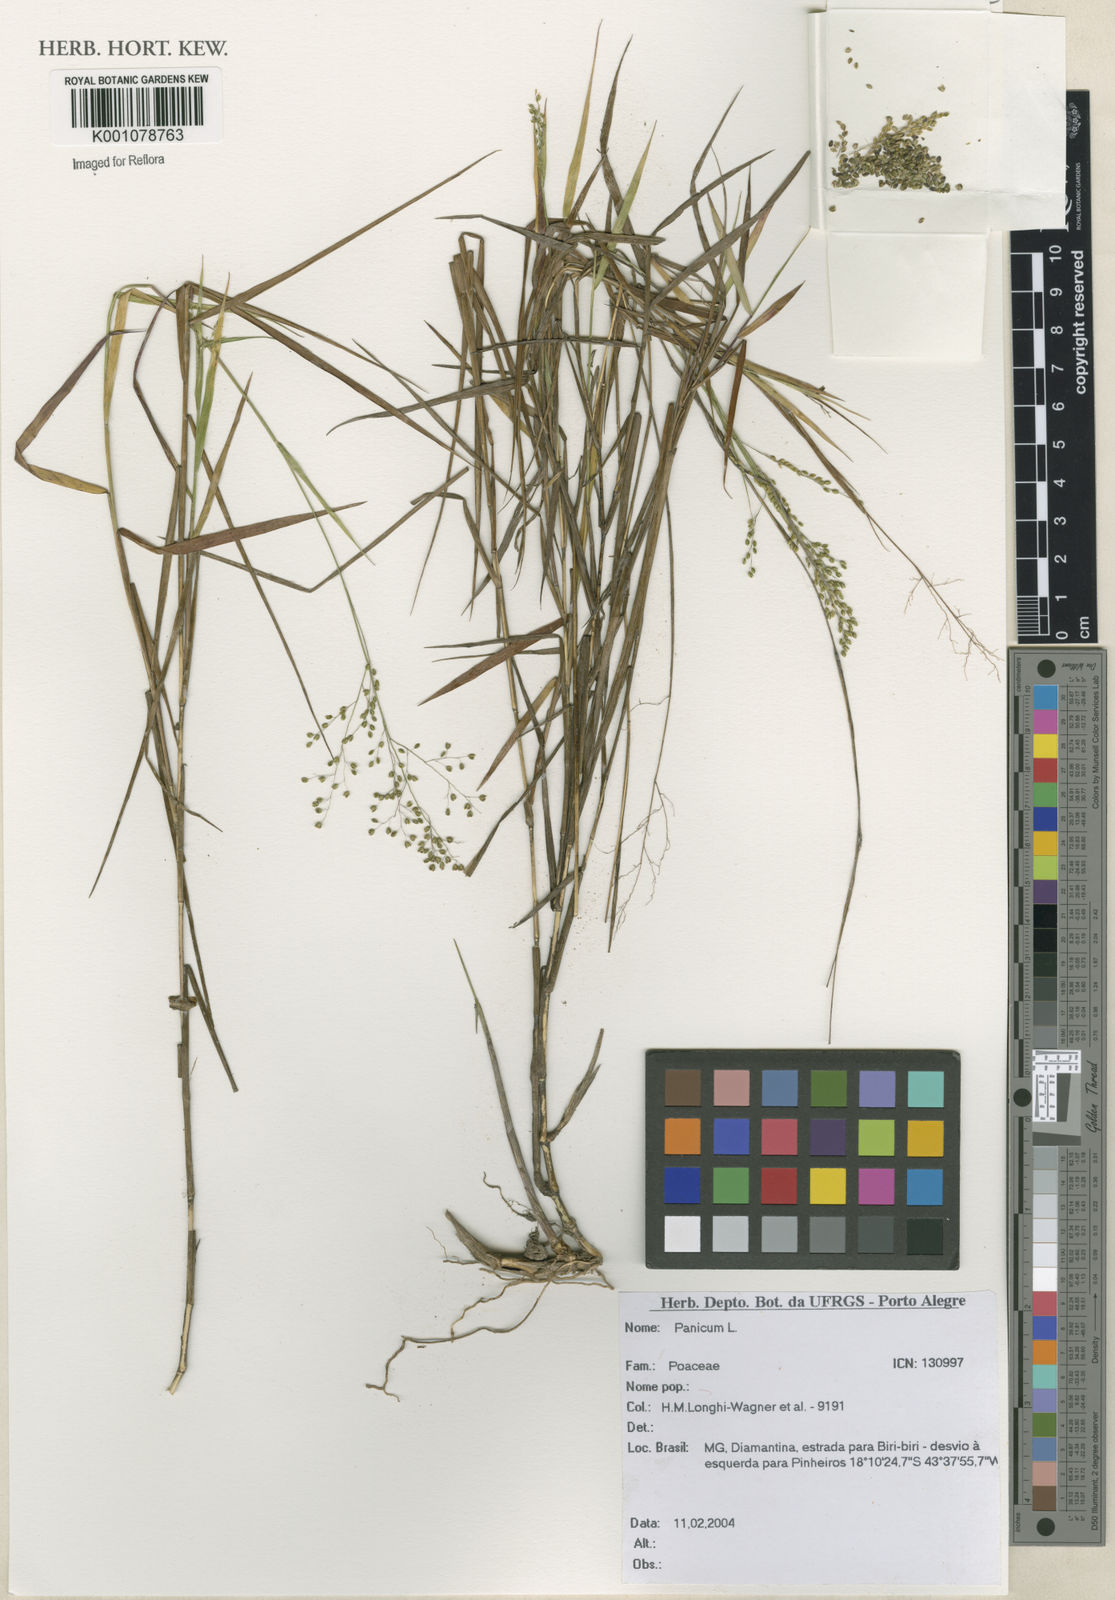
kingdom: Plantae
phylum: Tracheophyta
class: Liliopsida
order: Poales
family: Poaceae
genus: Panicum
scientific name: Panicum
